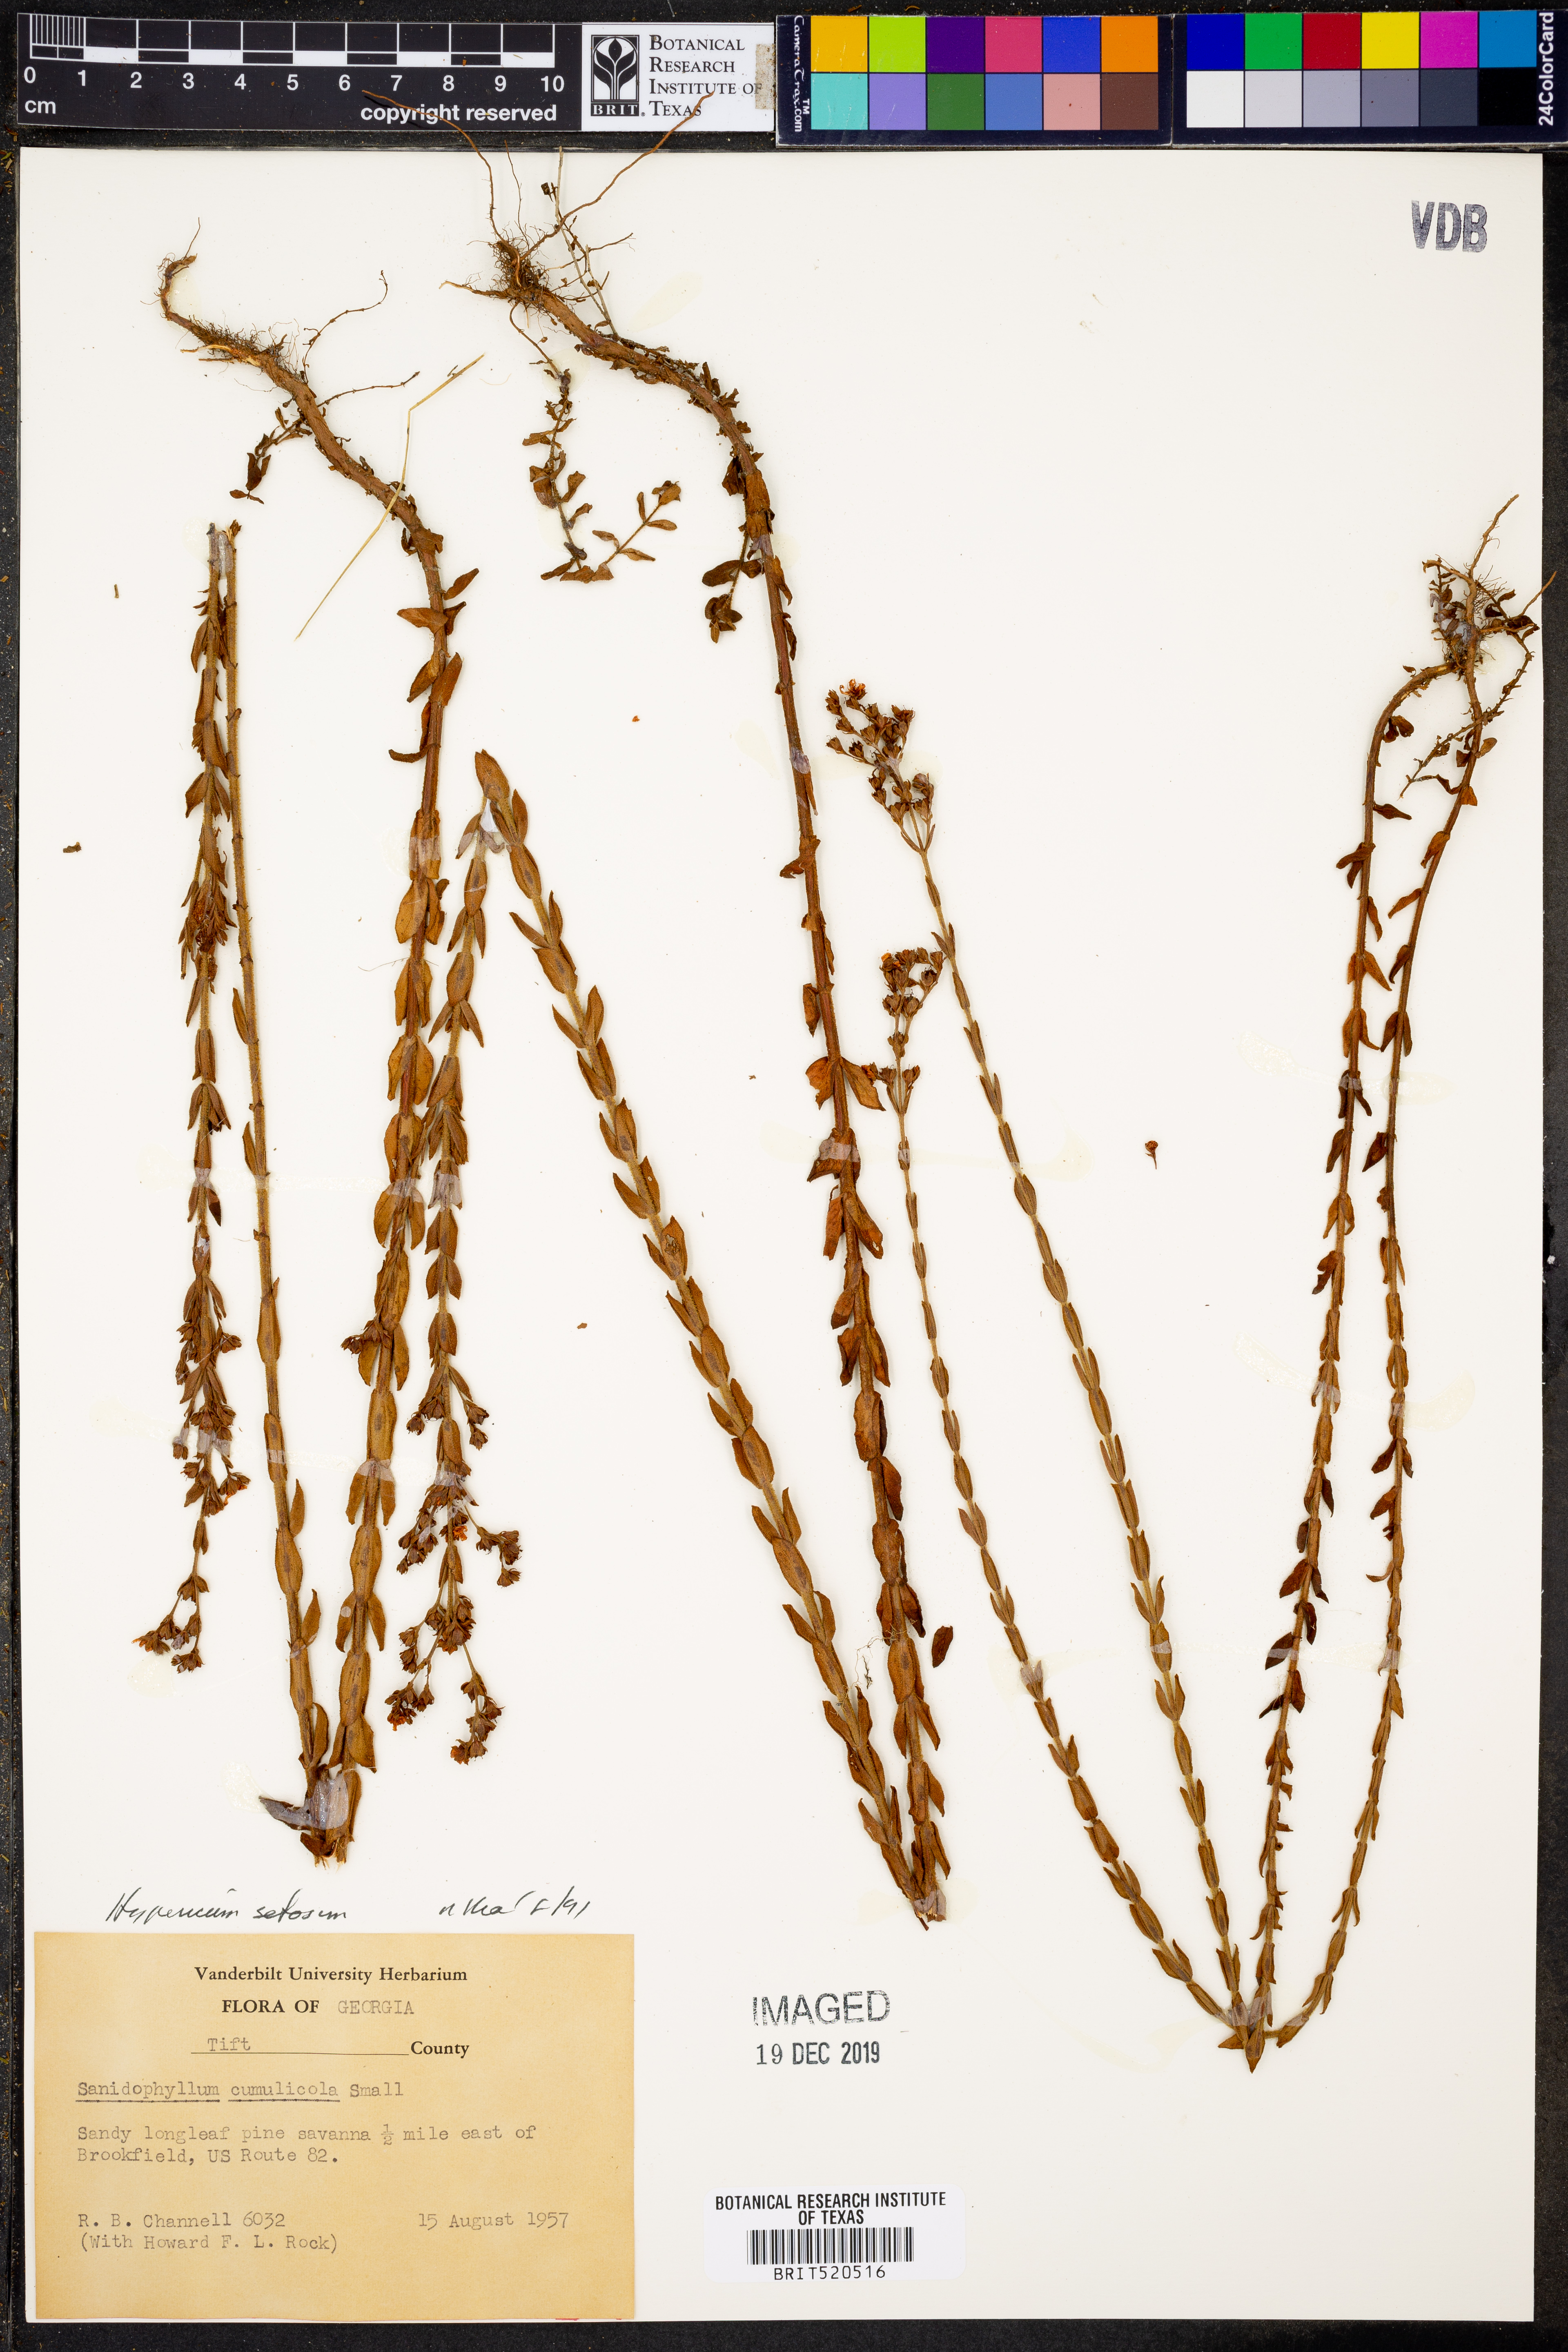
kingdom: Plantae
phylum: Tracheophyta
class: Magnoliopsida
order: Malpighiales
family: Hypericaceae
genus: Hypericum
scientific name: Hypericum setosum
